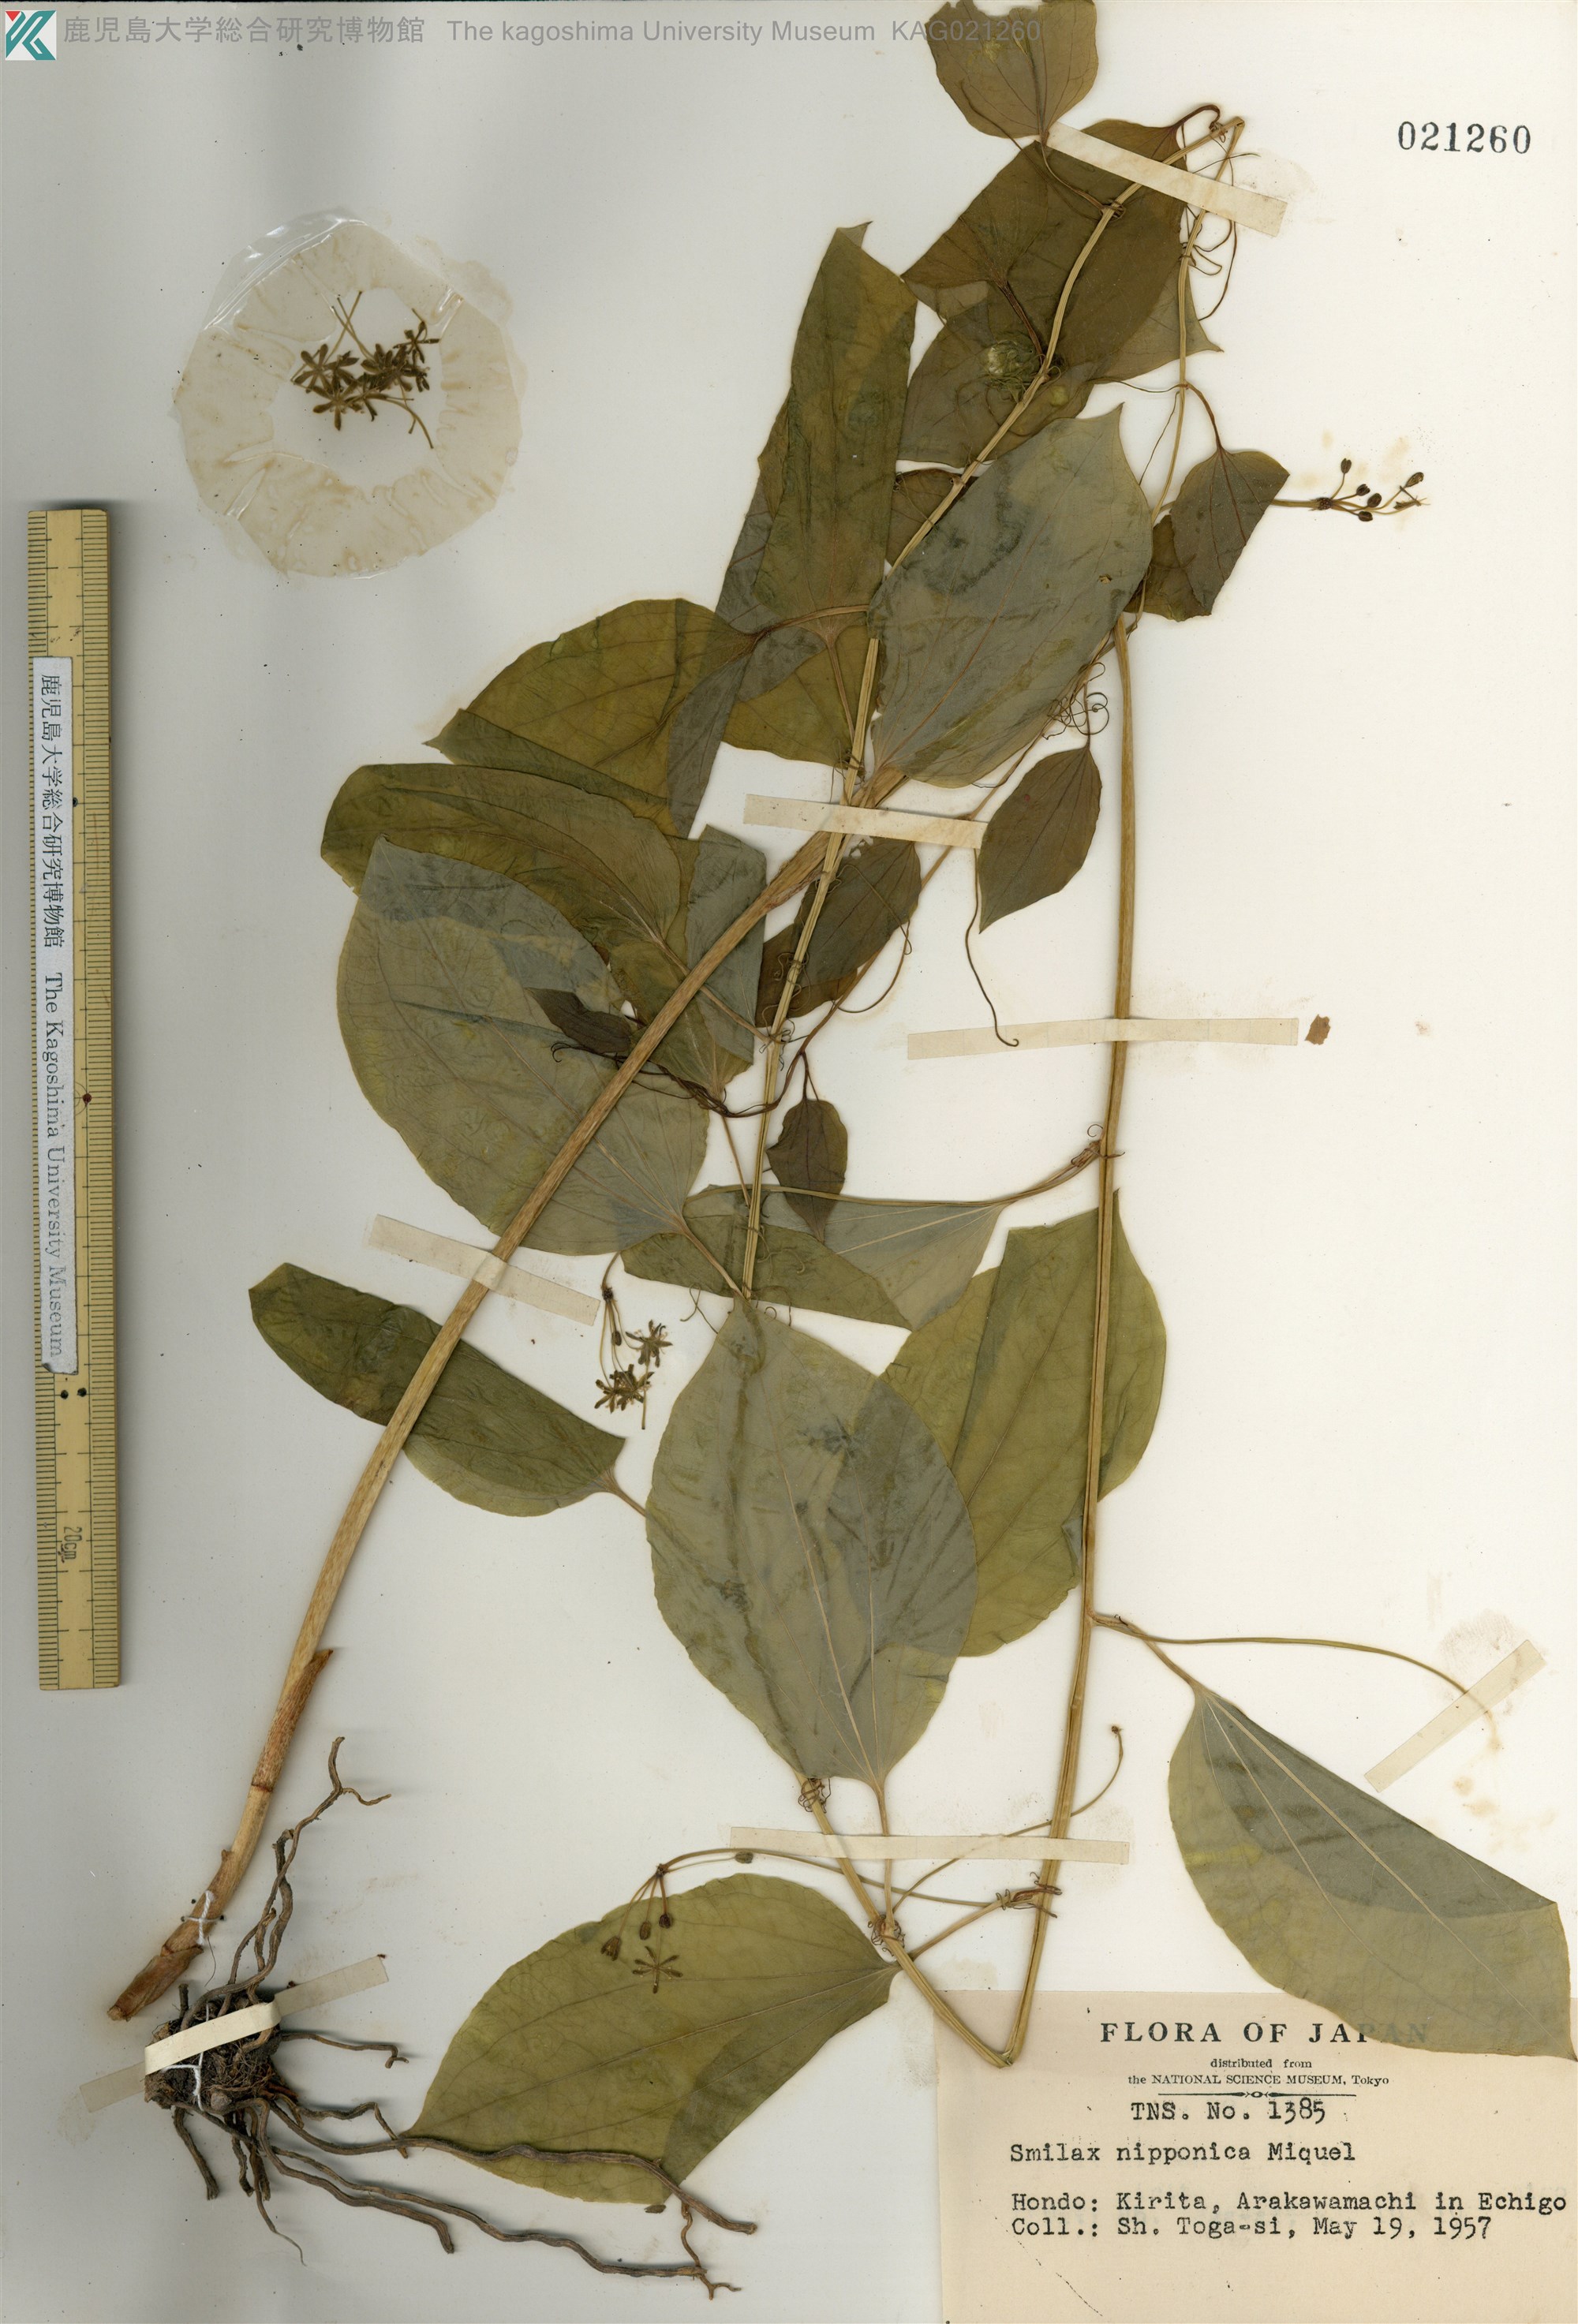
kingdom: Plantae
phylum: Tracheophyta
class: Liliopsida
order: Liliales
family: Smilacaceae
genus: Smilax
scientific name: Smilax riparia
